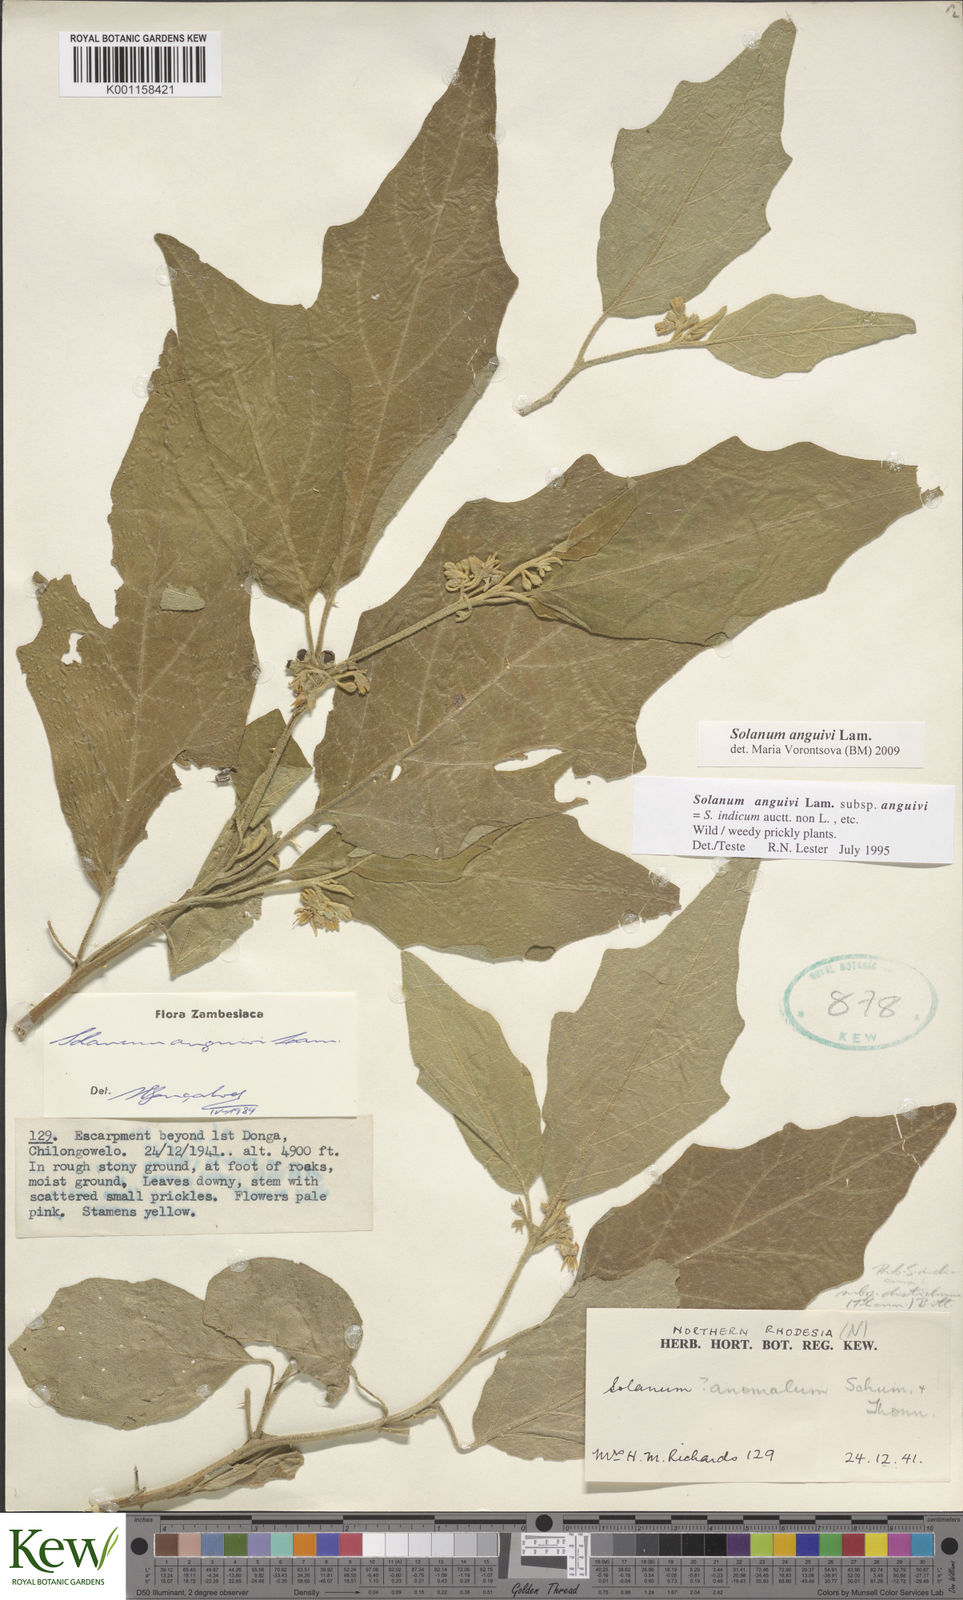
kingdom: Plantae
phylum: Tracheophyta
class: Magnoliopsida
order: Solanales
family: Solanaceae
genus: Solanum
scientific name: Solanum anguivi
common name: Forest bitterberry
